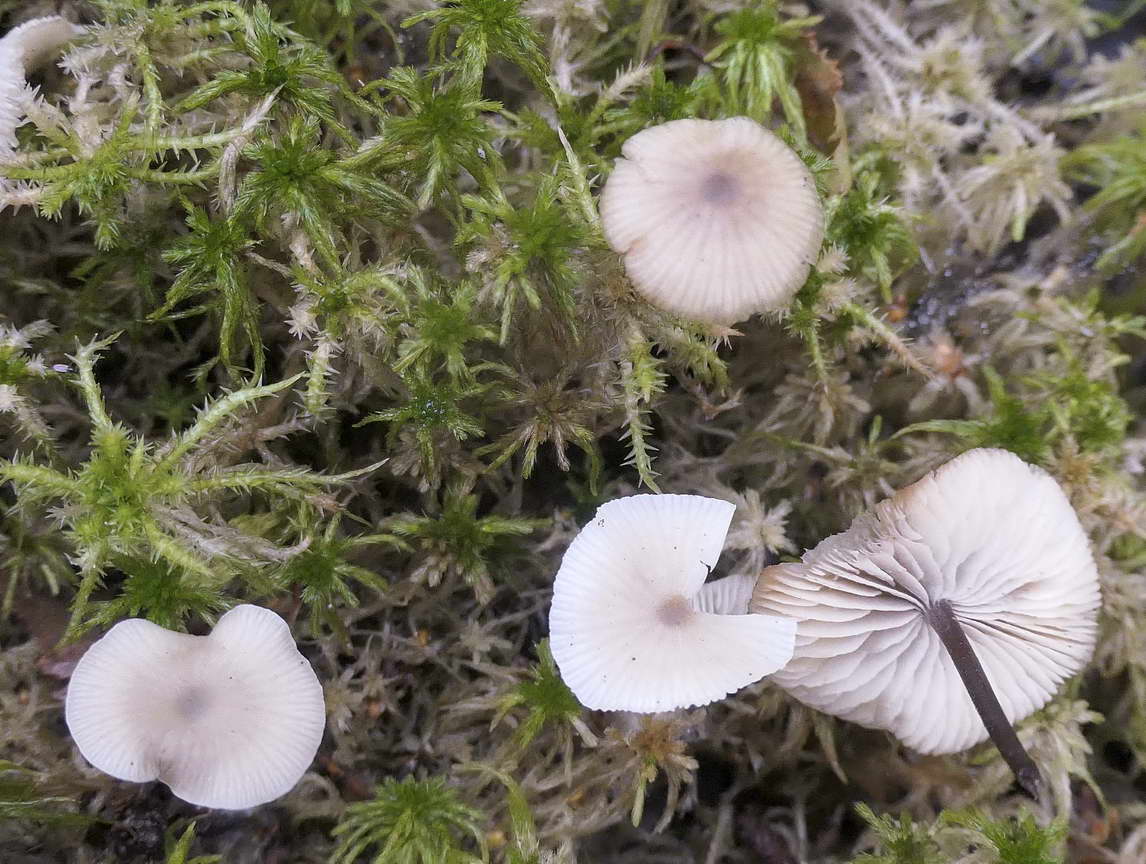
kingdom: Fungi
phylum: Basidiomycota
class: Agaricomycetes
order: Agaricales
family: Lyophyllaceae
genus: Sphagnurus
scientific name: Sphagnurus paluster
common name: tørvemos-gråblad
